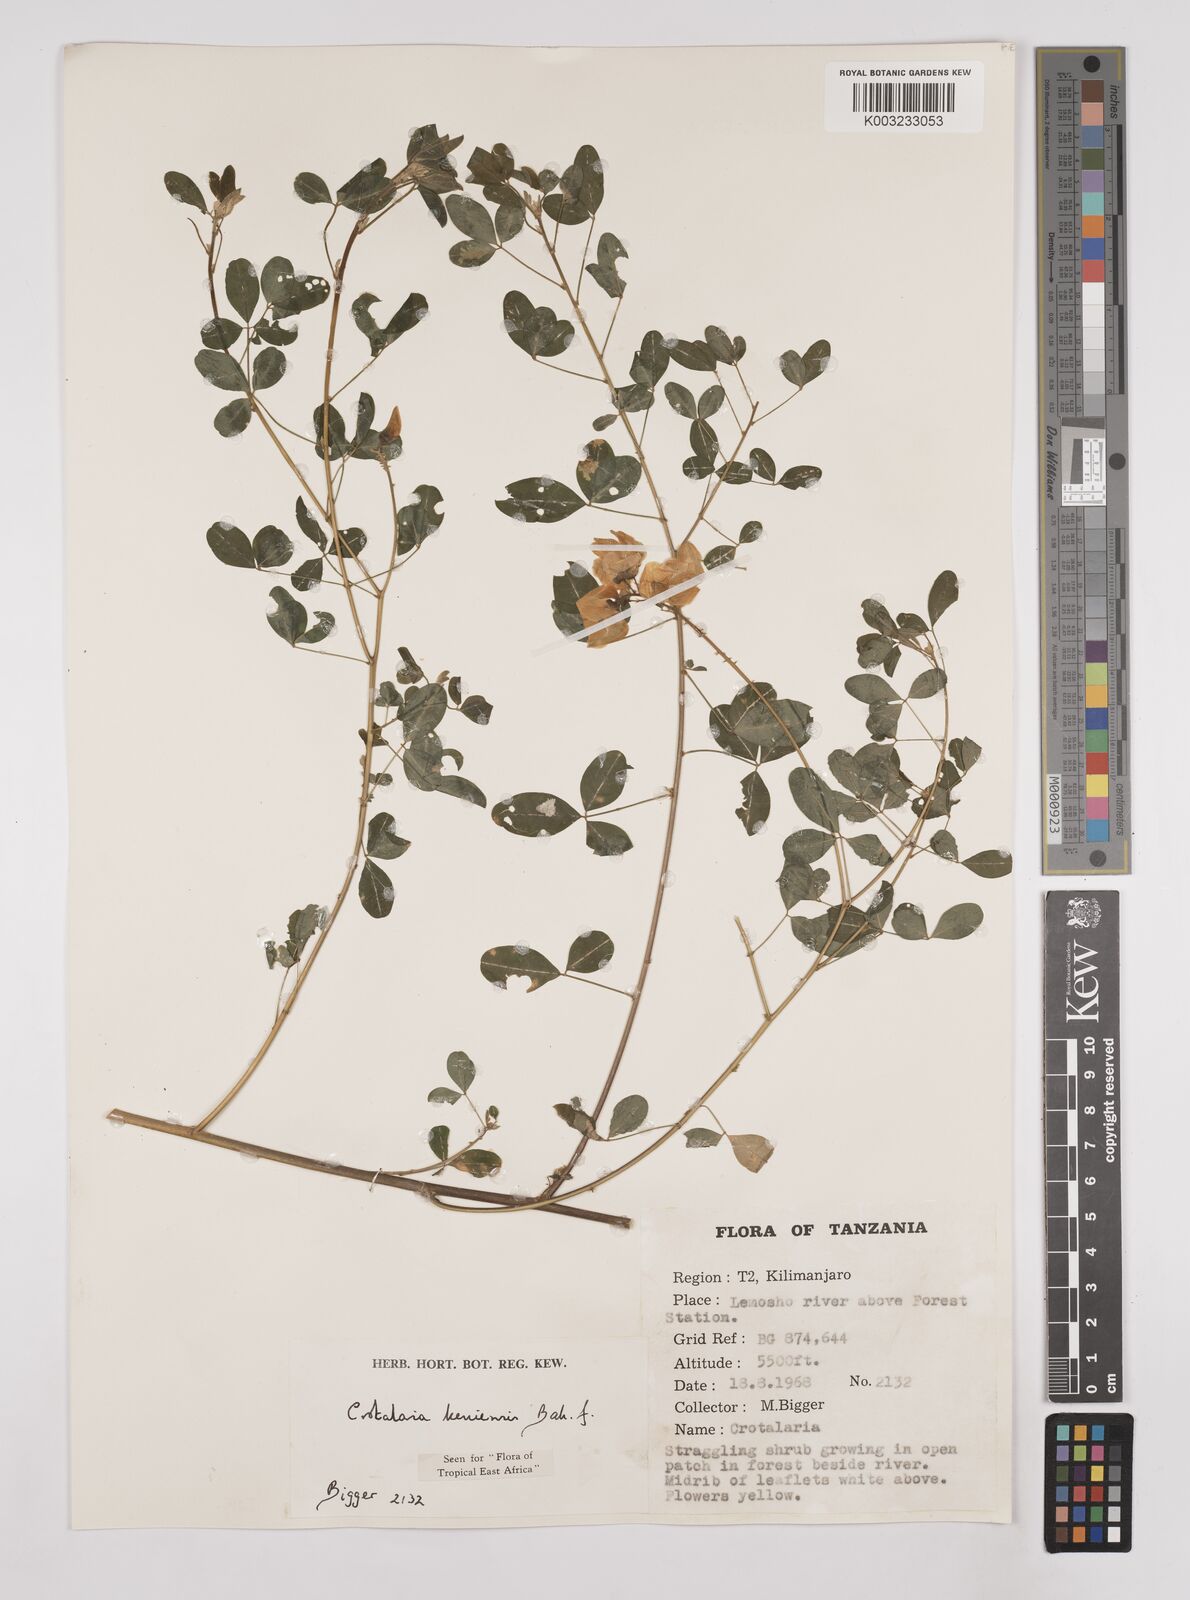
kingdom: Plantae
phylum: Tracheophyta
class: Magnoliopsida
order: Fabales
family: Fabaceae
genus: Crotalaria
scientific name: Crotalaria keniensis
